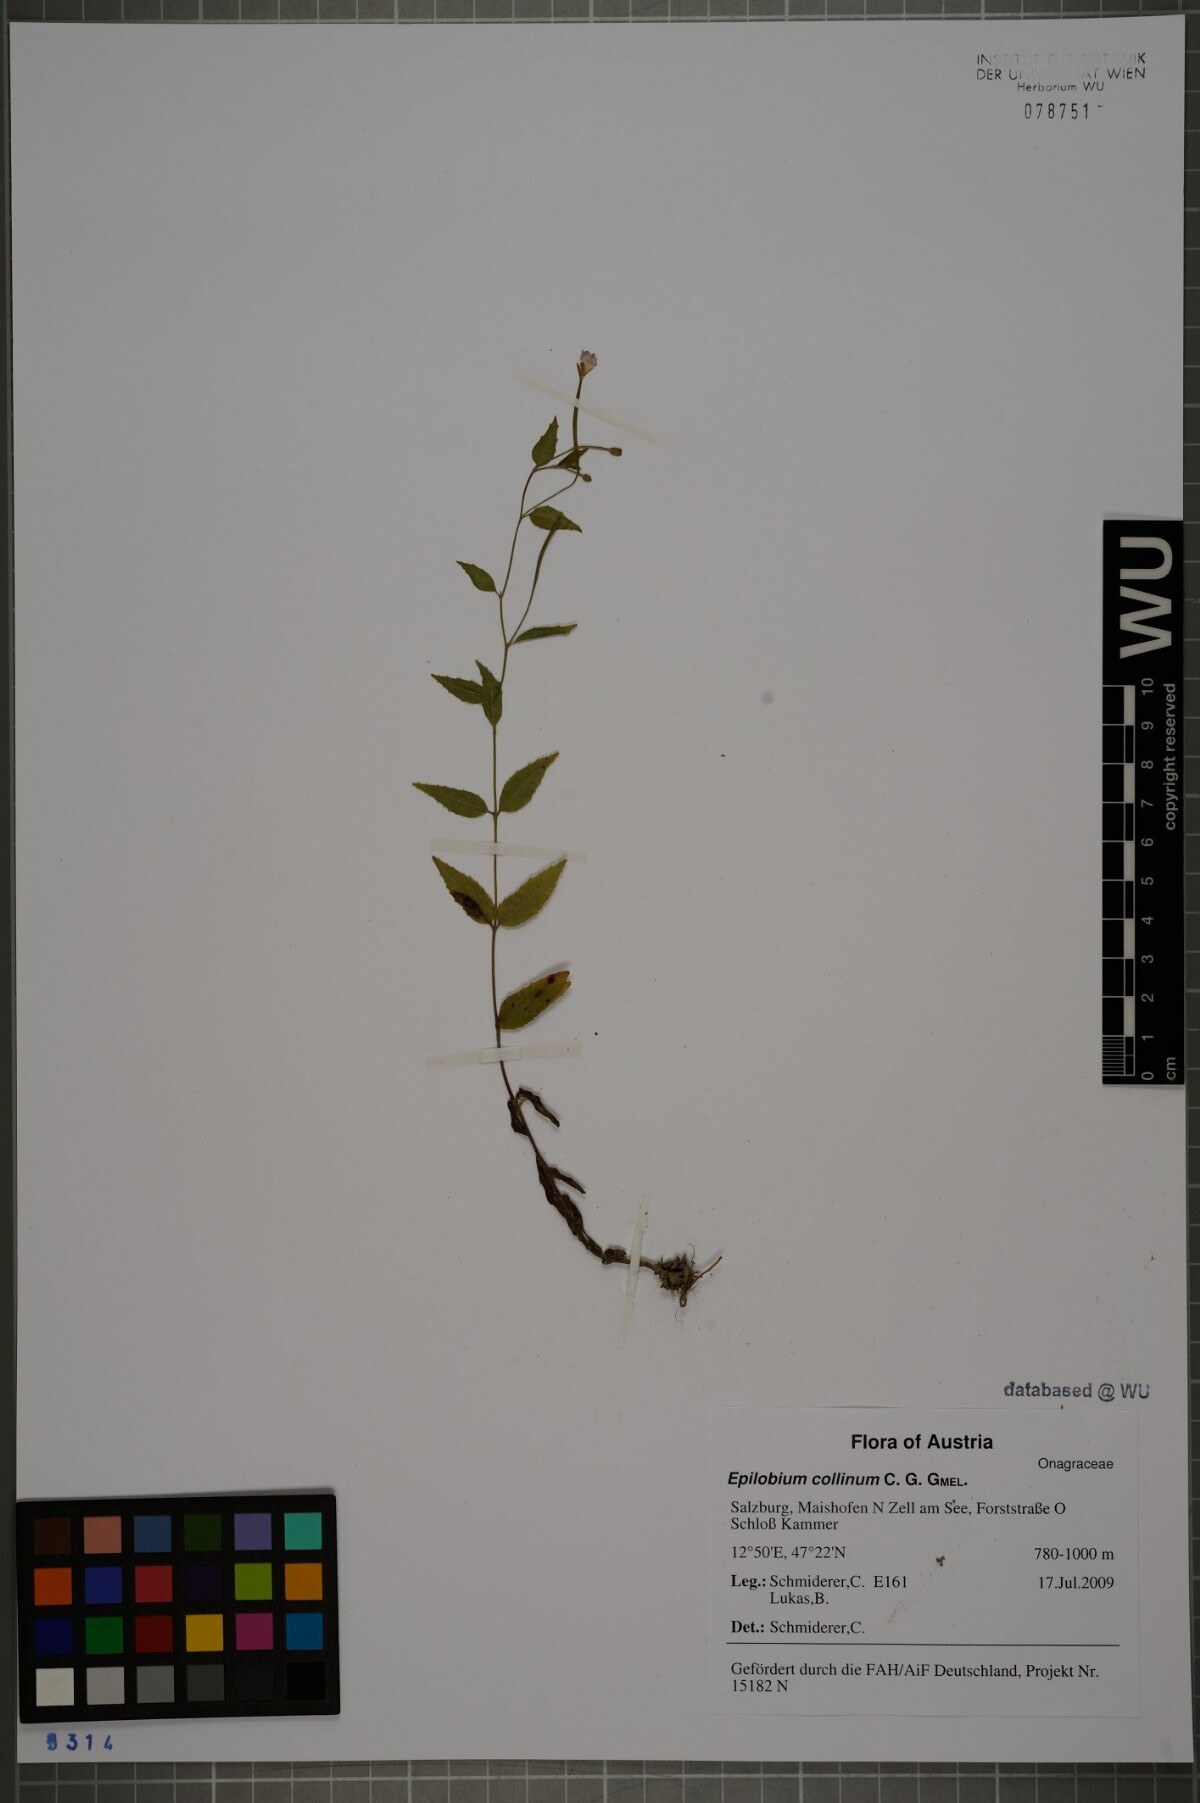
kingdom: Plantae
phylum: Tracheophyta
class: Magnoliopsida
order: Myrtales
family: Onagraceae
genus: Epilobium
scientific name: Epilobium collinum
